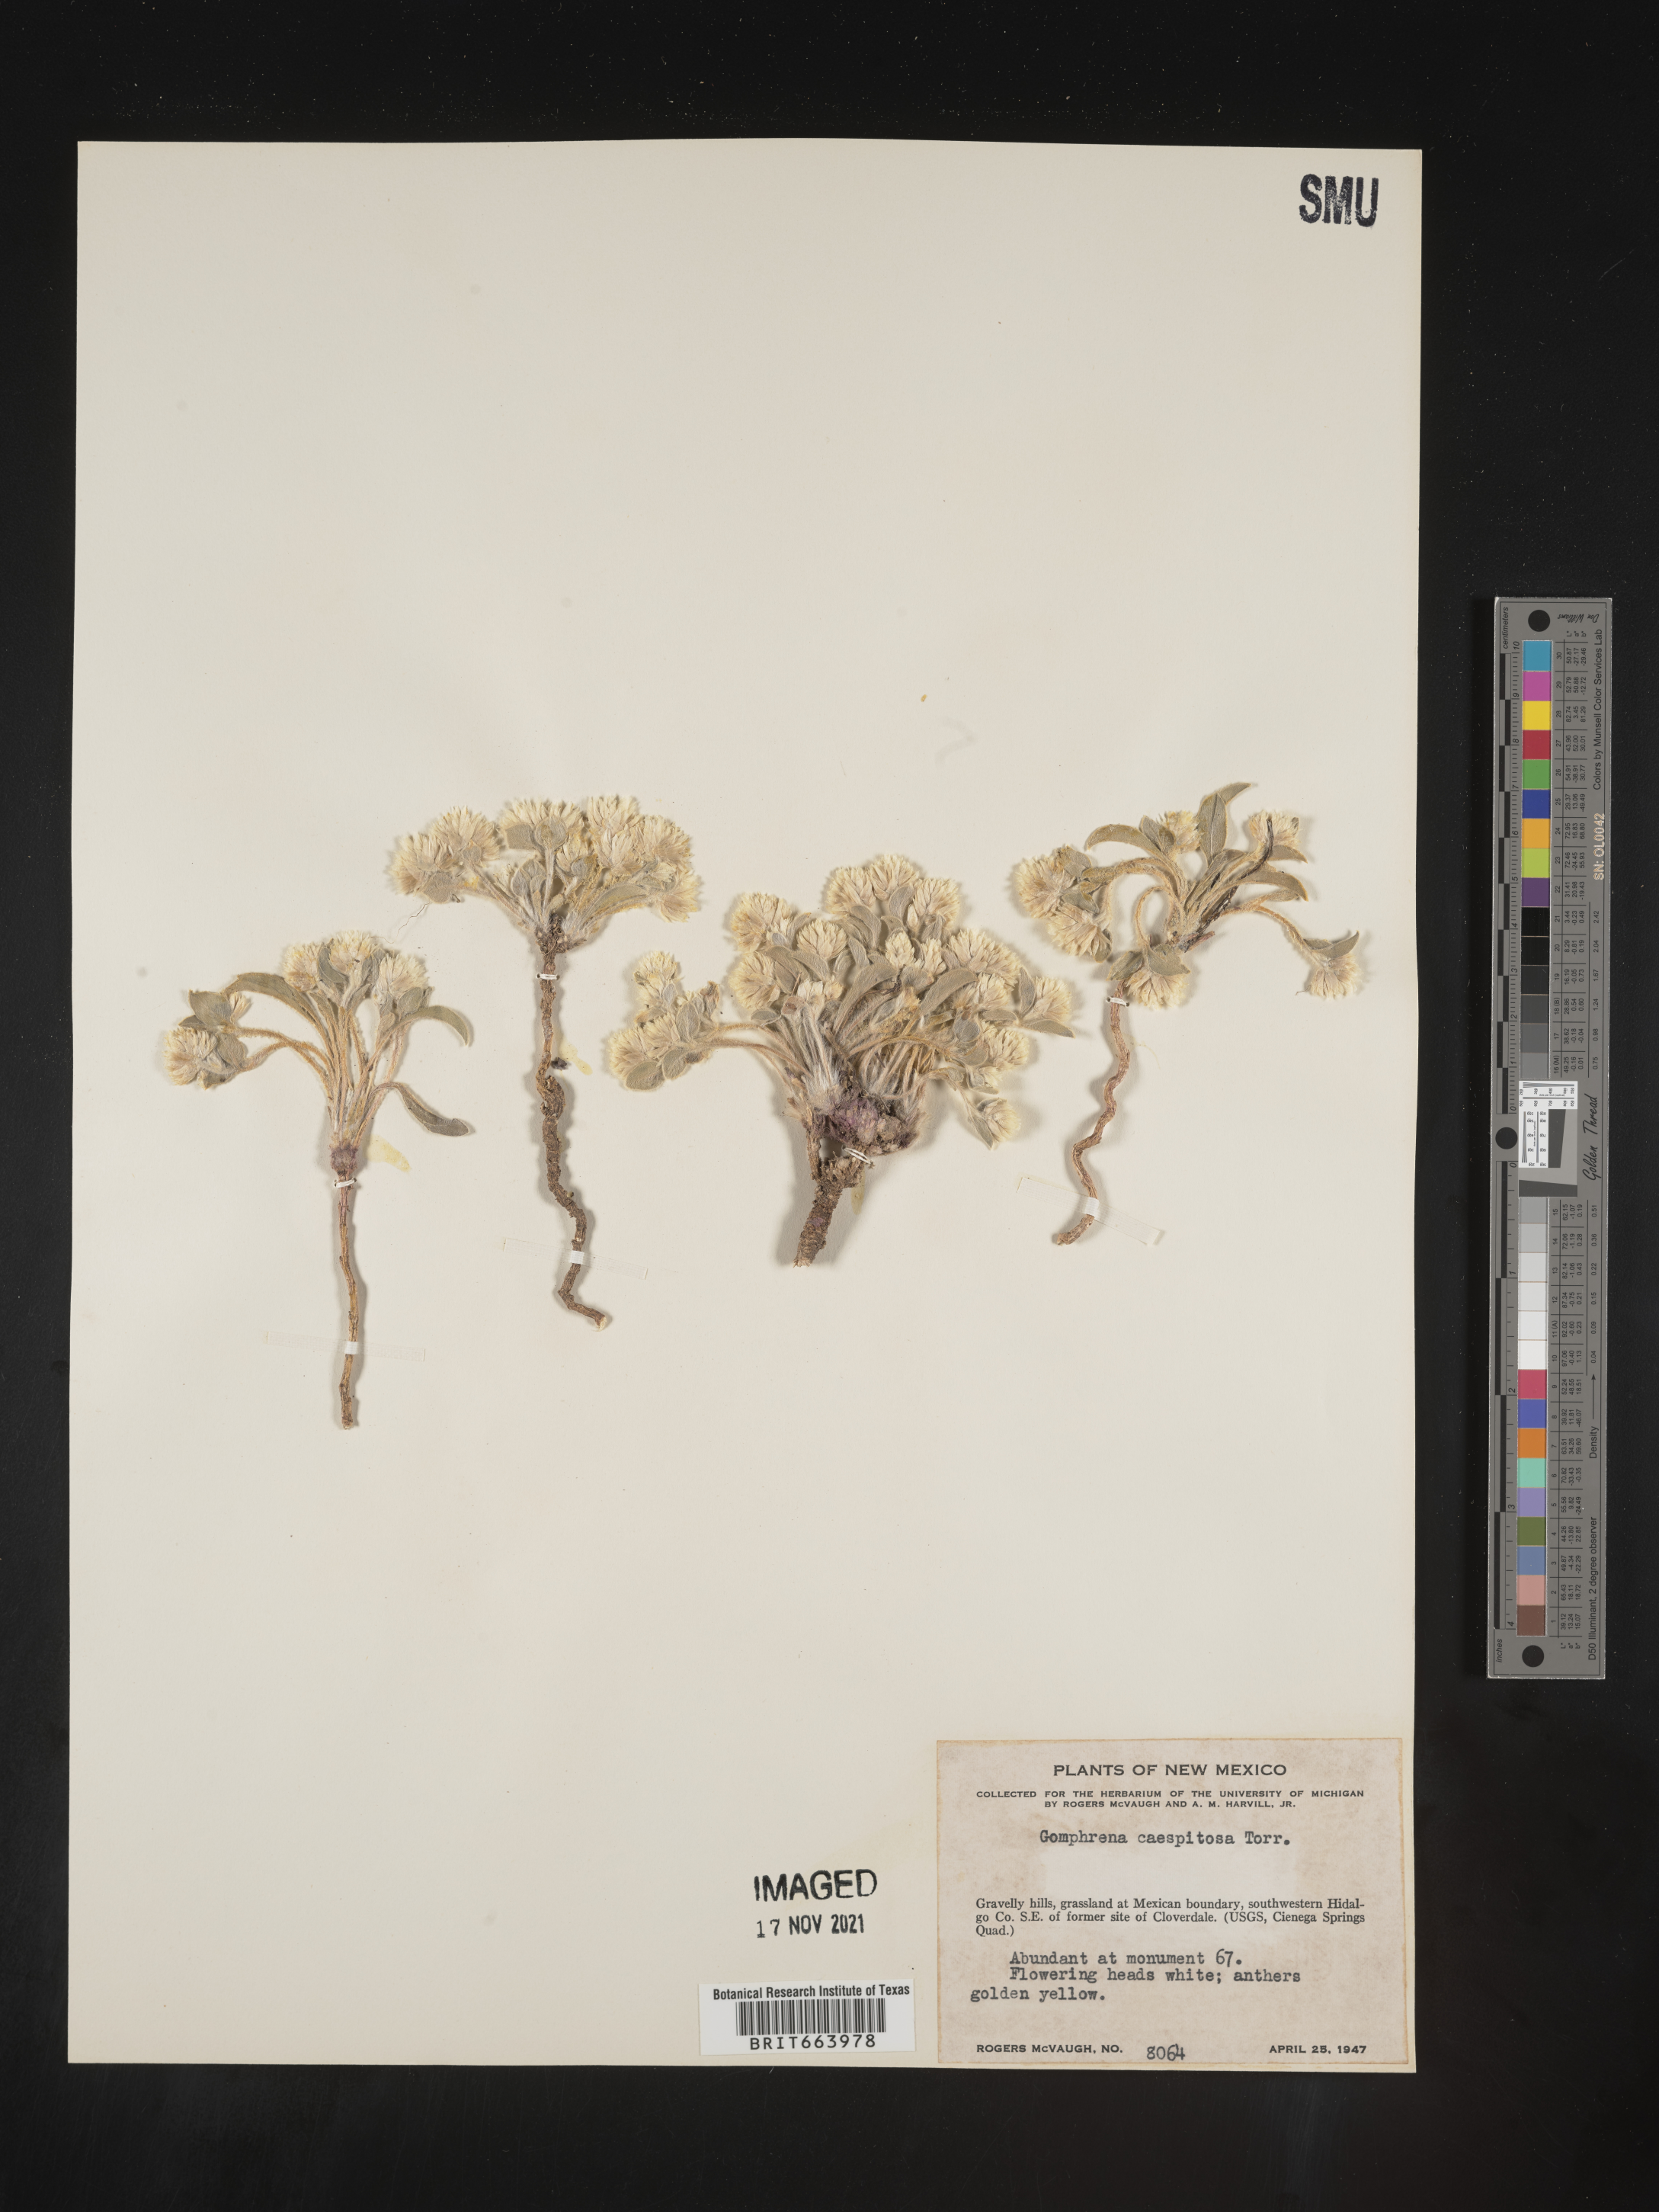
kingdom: Plantae
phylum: Tracheophyta
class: Magnoliopsida
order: Caryophyllales
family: Amaranthaceae
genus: Gomphrena
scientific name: Gomphrena
